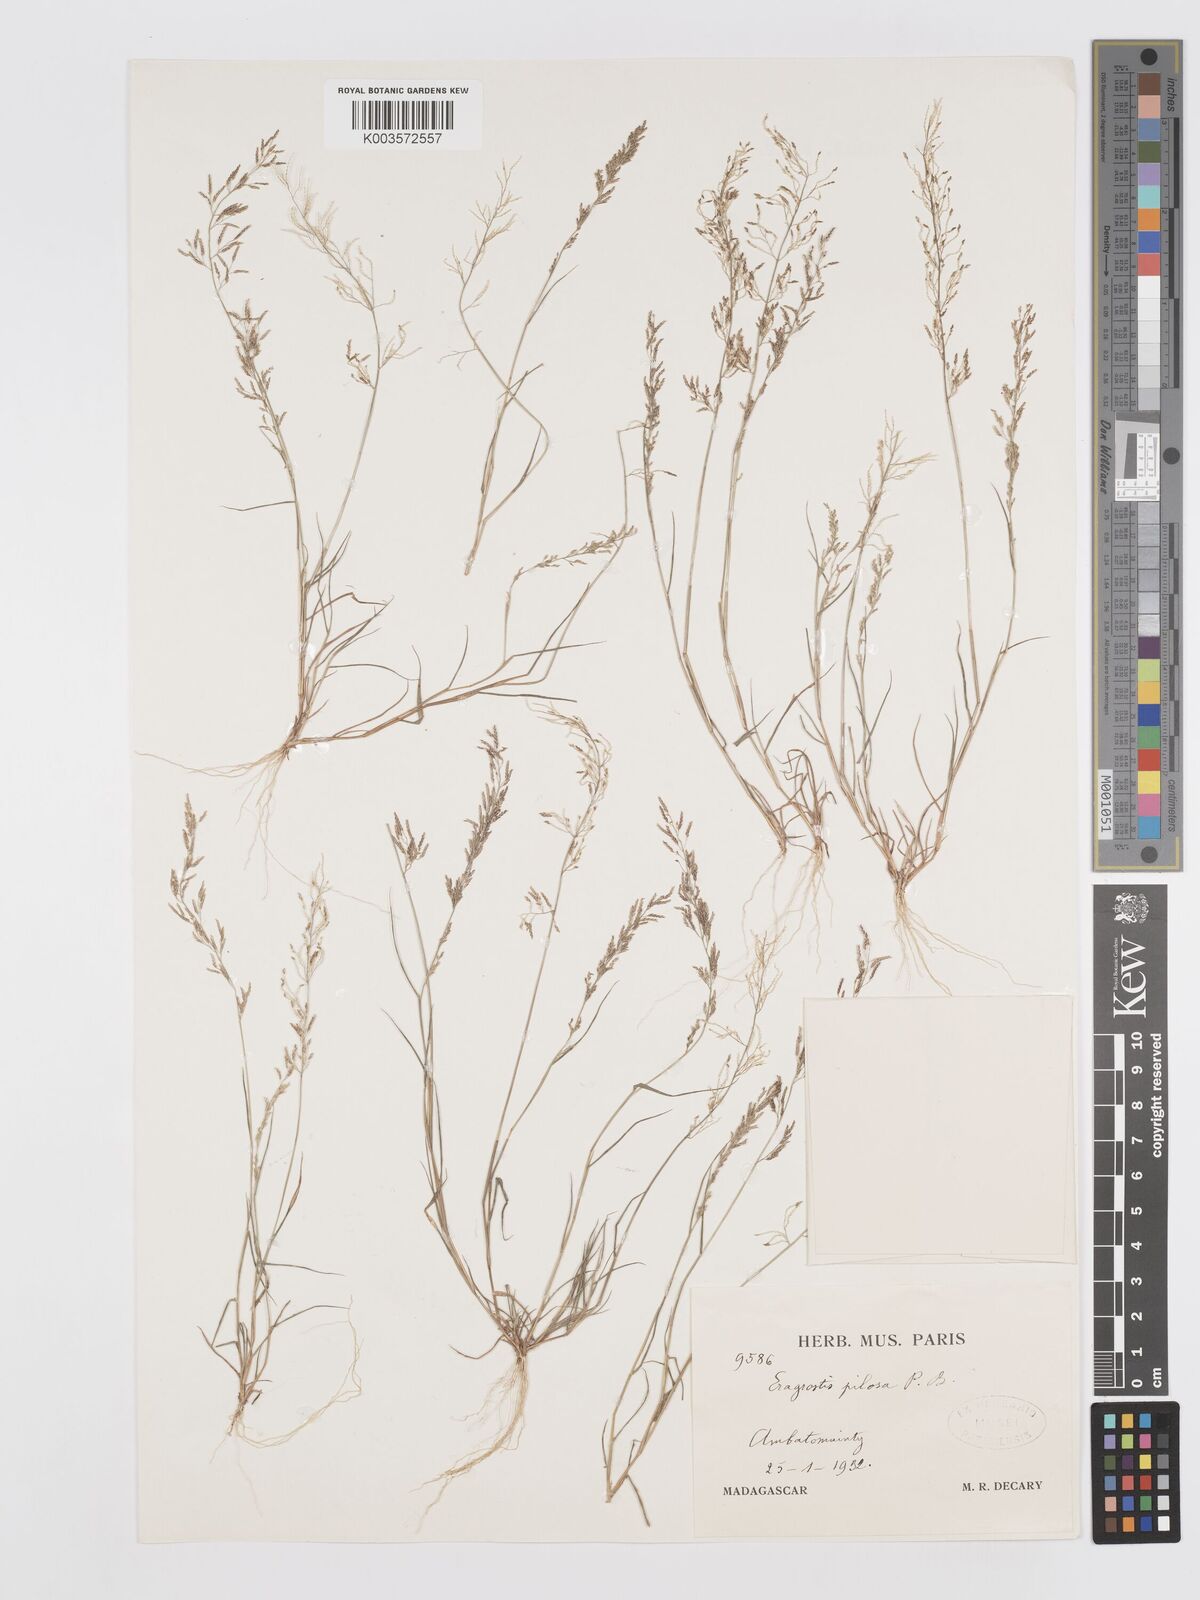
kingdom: Plantae
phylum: Tracheophyta
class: Liliopsida
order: Poales
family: Poaceae
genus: Eragrostis
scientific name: Eragrostis pilosa
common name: Indian lovegrass
